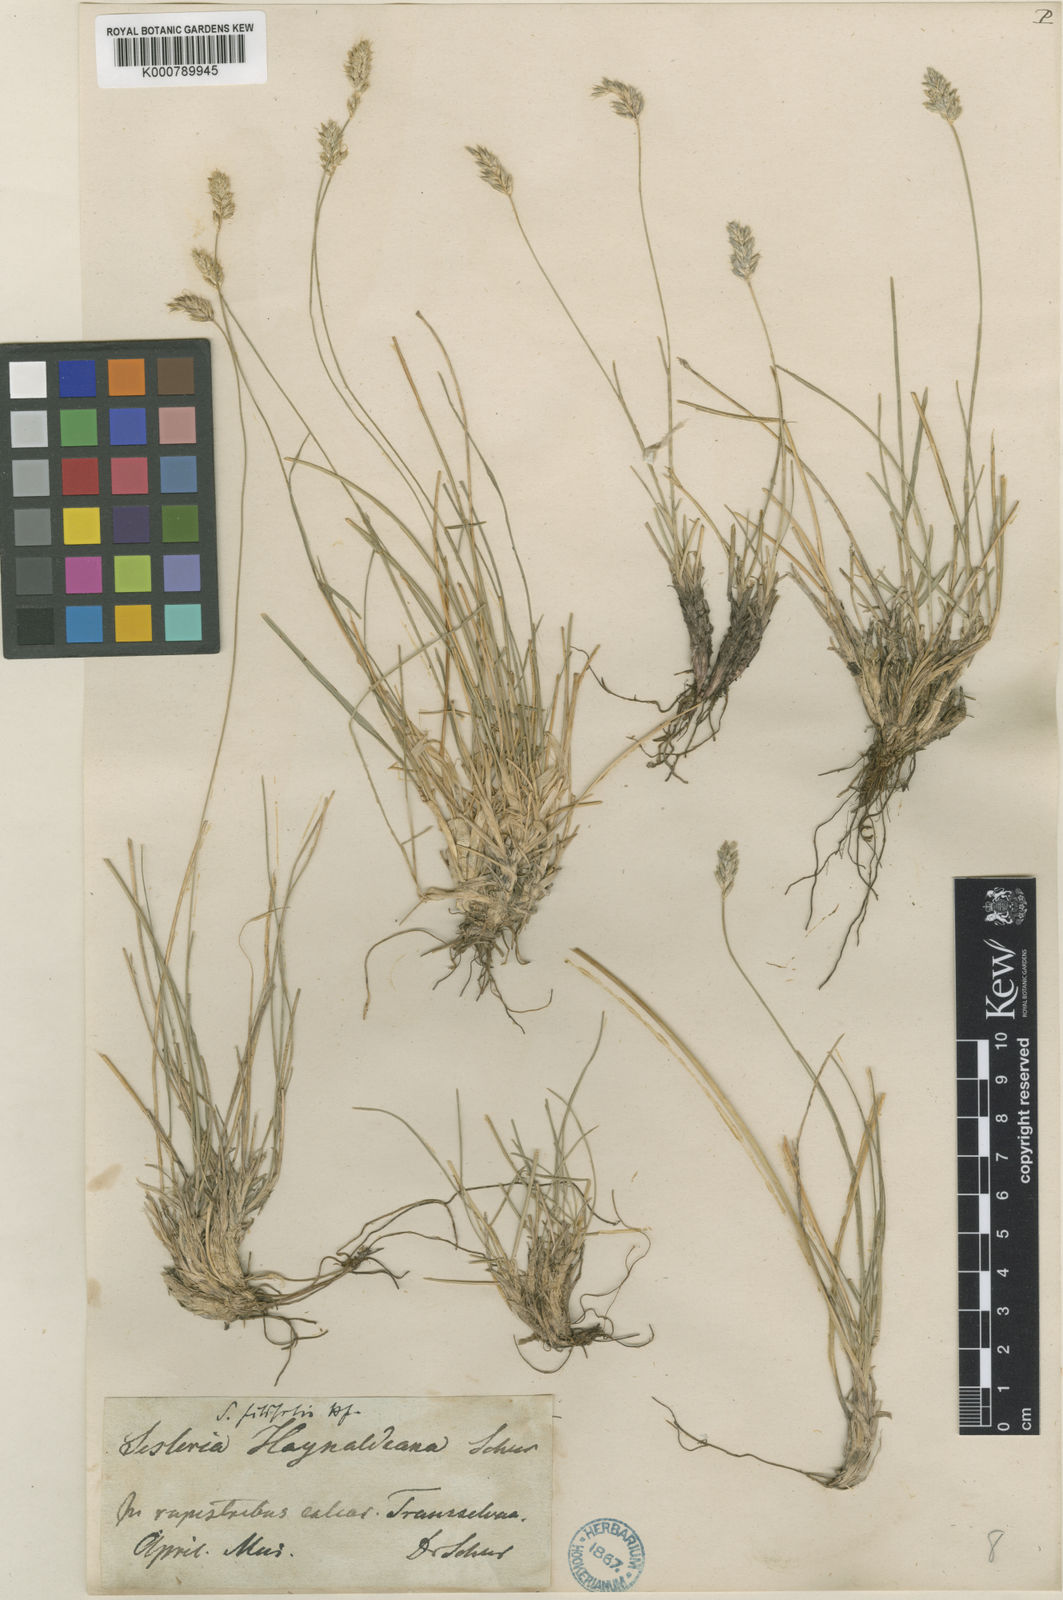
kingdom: Plantae
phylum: Tracheophyta
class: Liliopsida
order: Poales
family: Poaceae
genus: Sesleria
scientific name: Sesleria rigida
